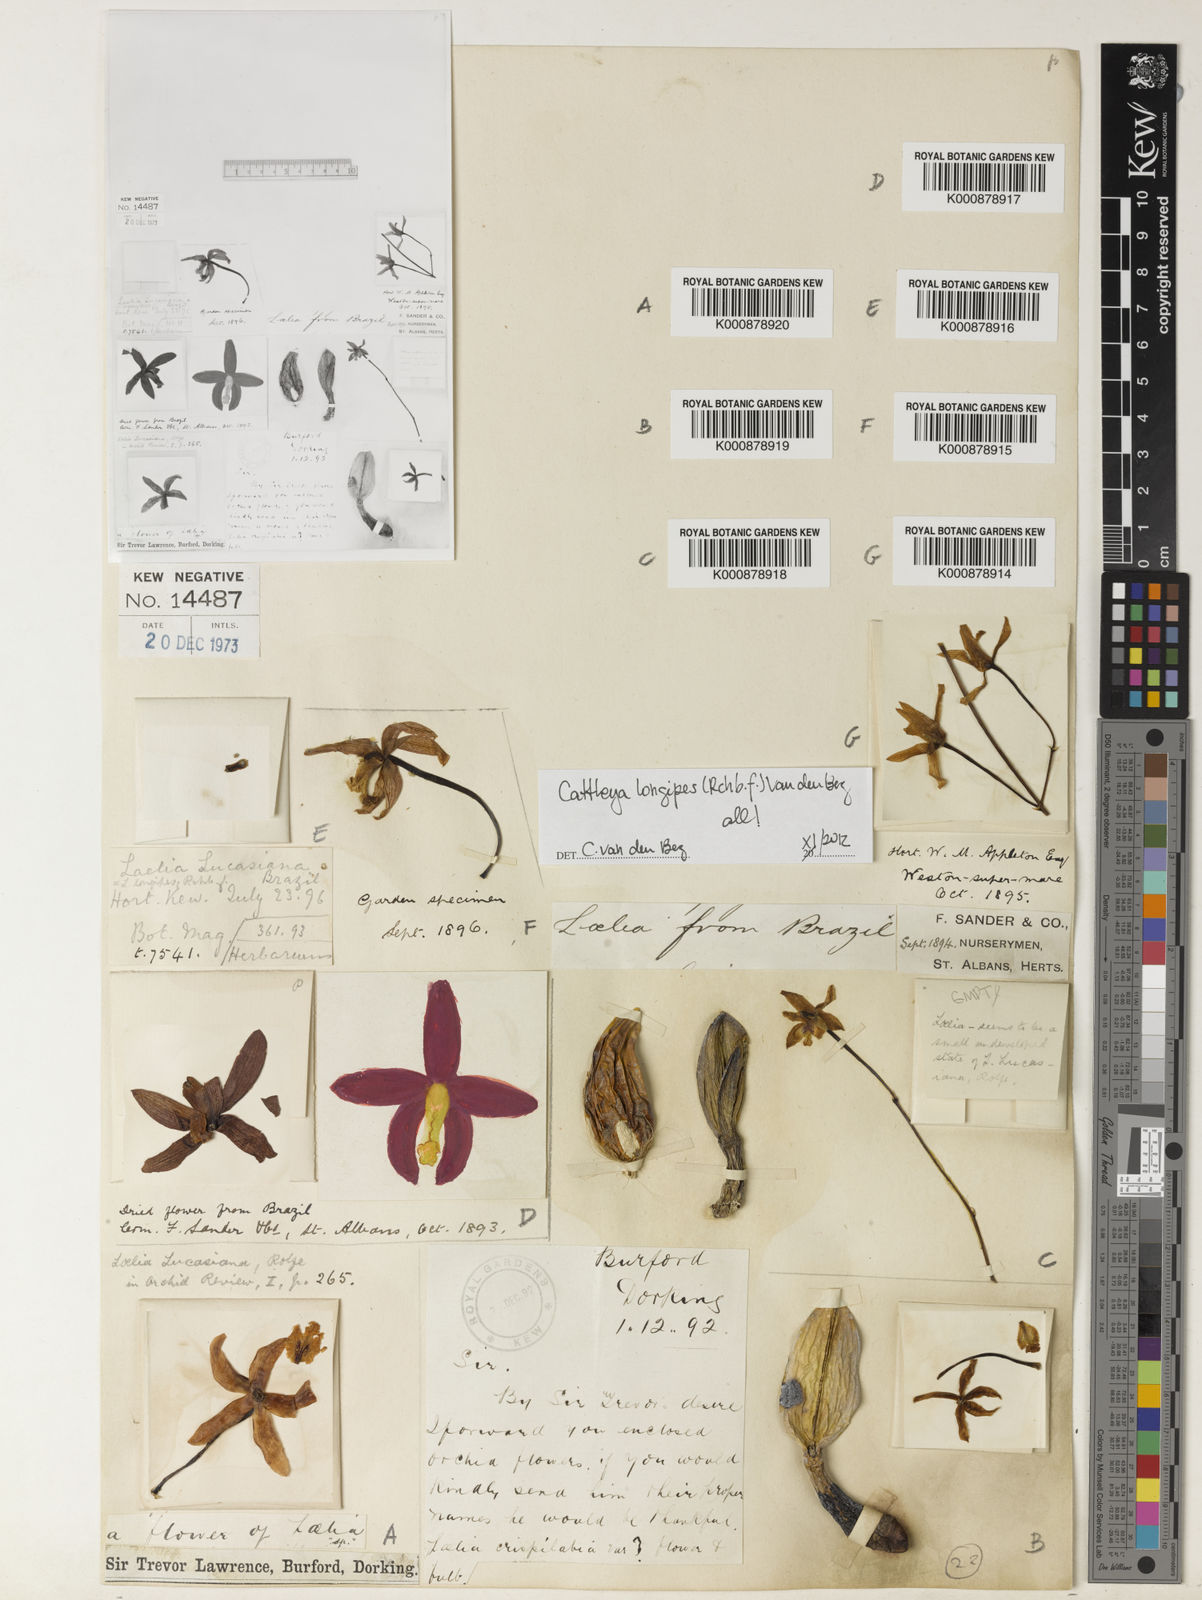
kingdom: Plantae
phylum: Tracheophyta
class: Liliopsida
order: Asparagales
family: Orchidaceae
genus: Cattleya
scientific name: Cattleya longipes
